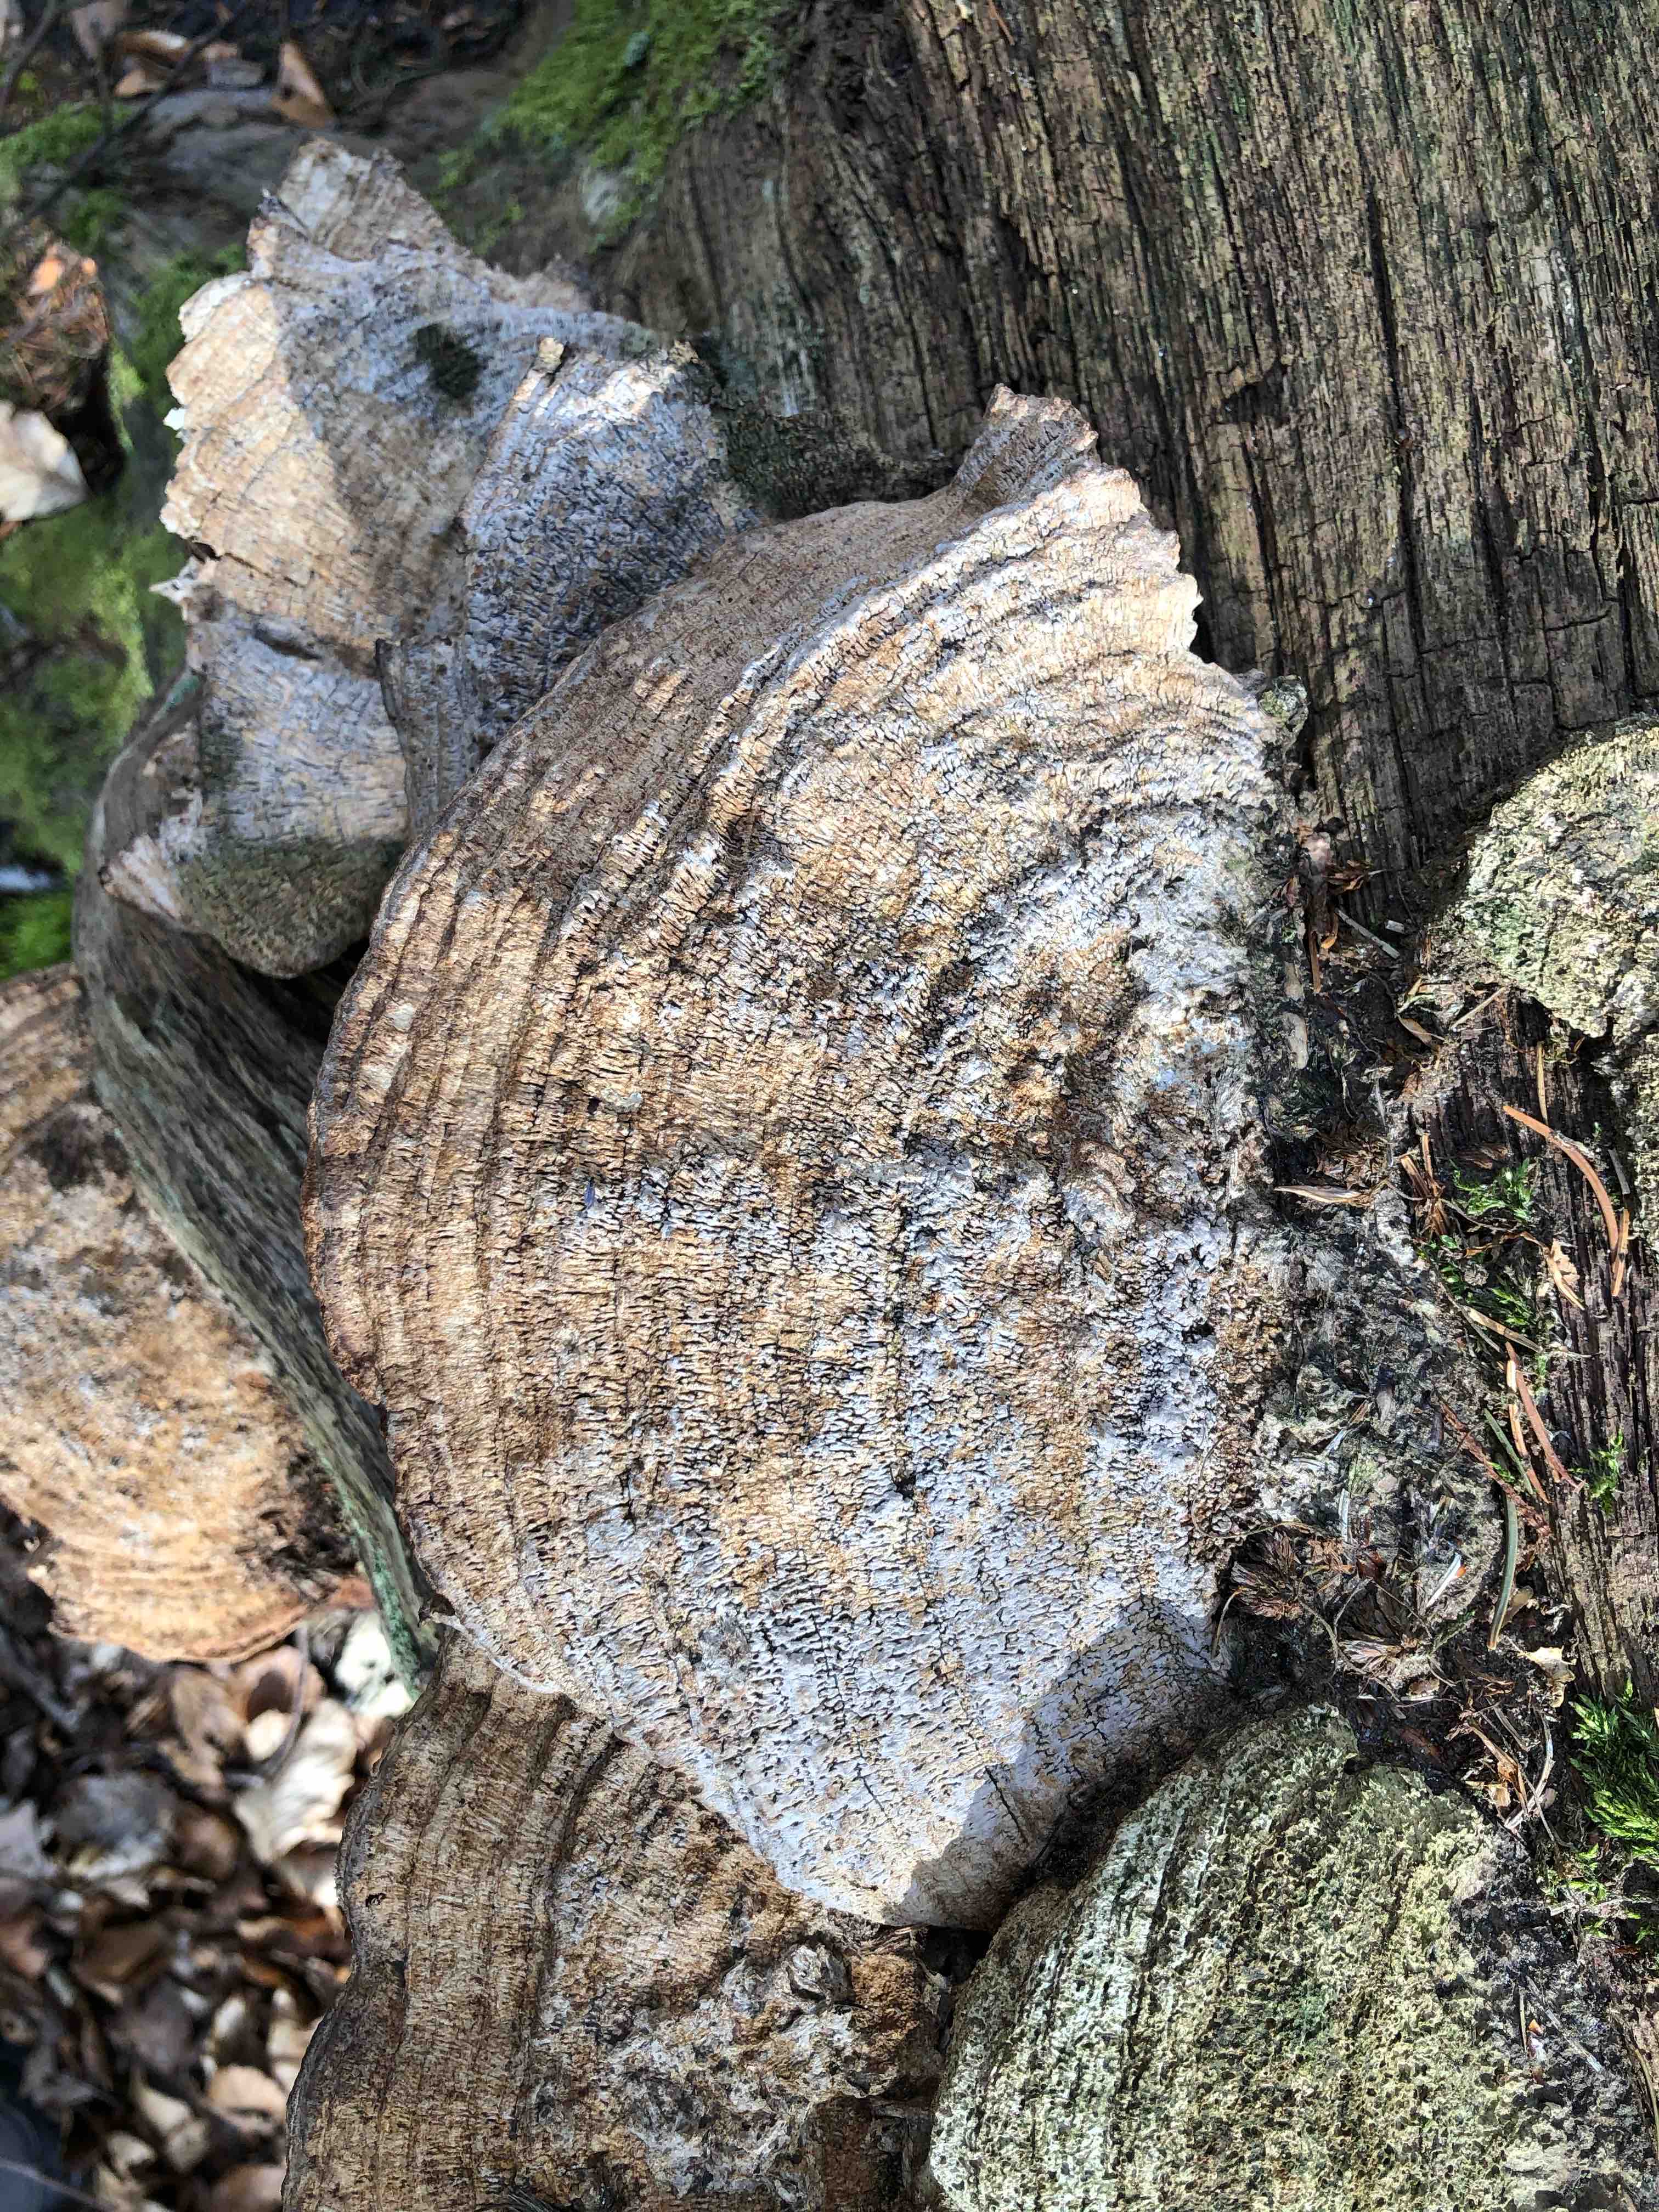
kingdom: Fungi
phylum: Basidiomycota
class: Agaricomycetes
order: Polyporales
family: Fomitopsidaceae
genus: Daedalea
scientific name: Daedalea quercina
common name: ege-labyrintsvamp
